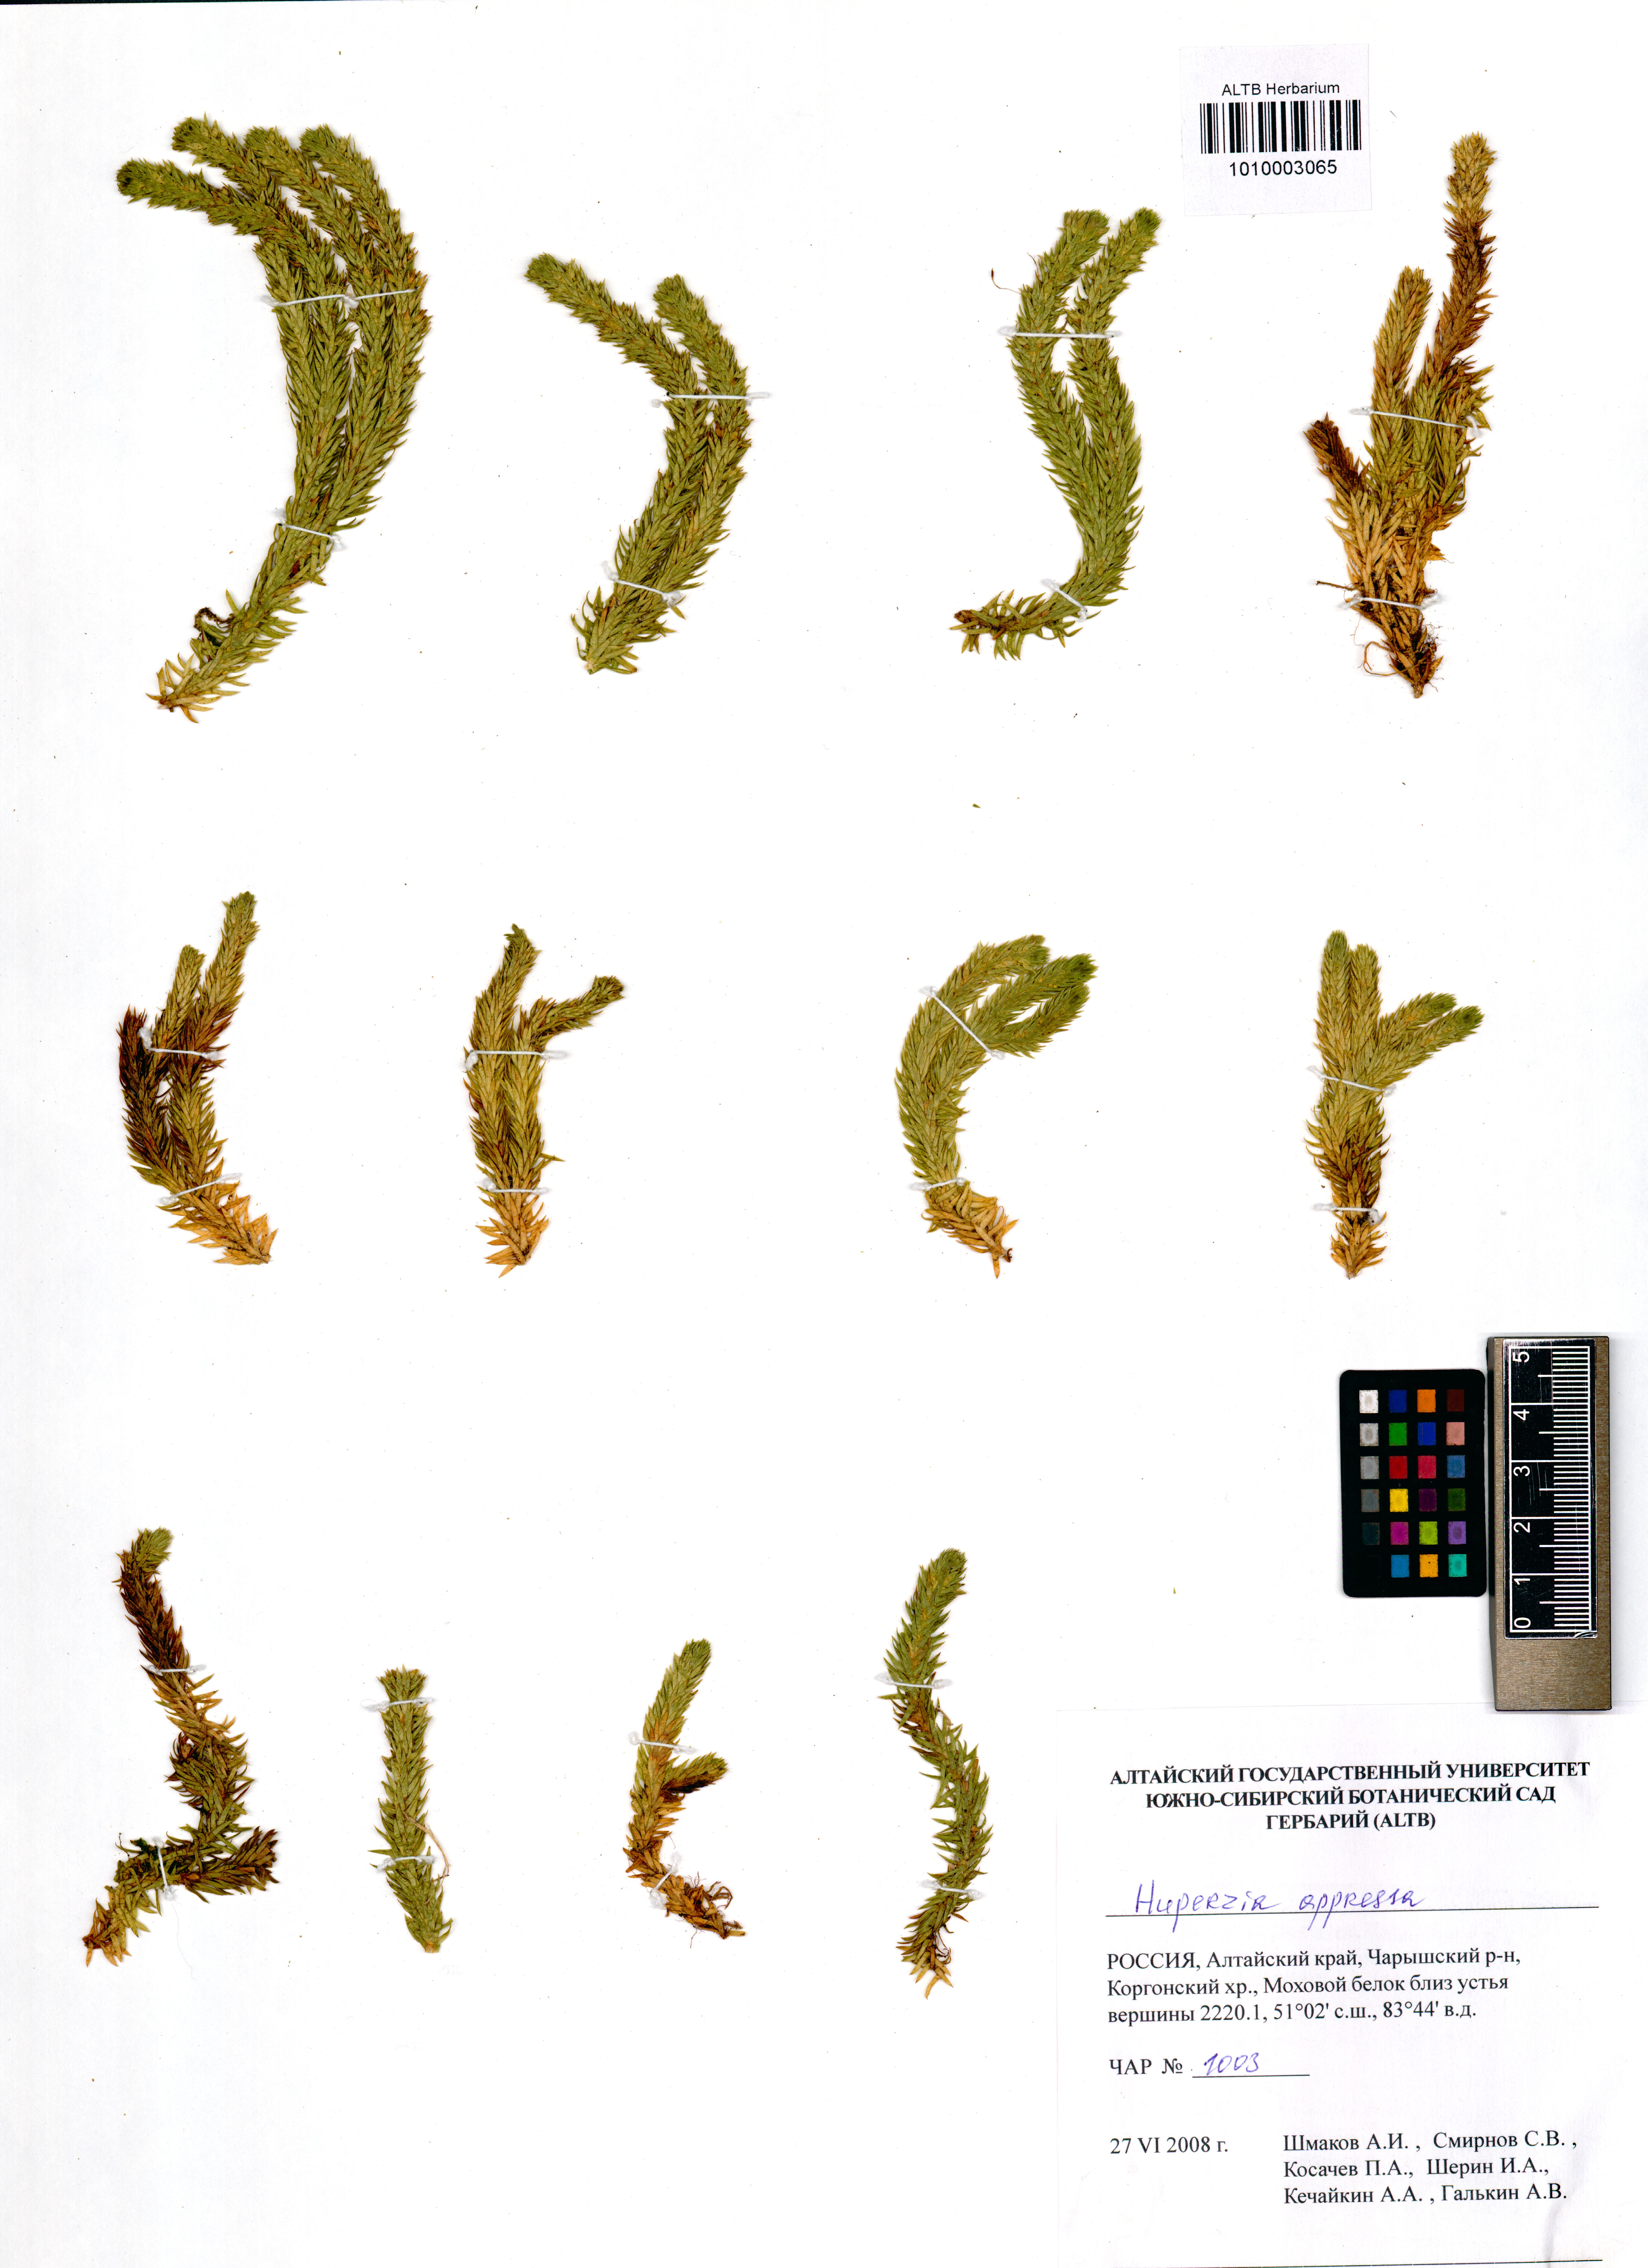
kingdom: Plantae
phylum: Tracheophyta
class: Lycopodiopsida
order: Lycopodiales
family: Lycopodiaceae
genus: Huperzia
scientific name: Huperzia selago
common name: Northern firmoss
